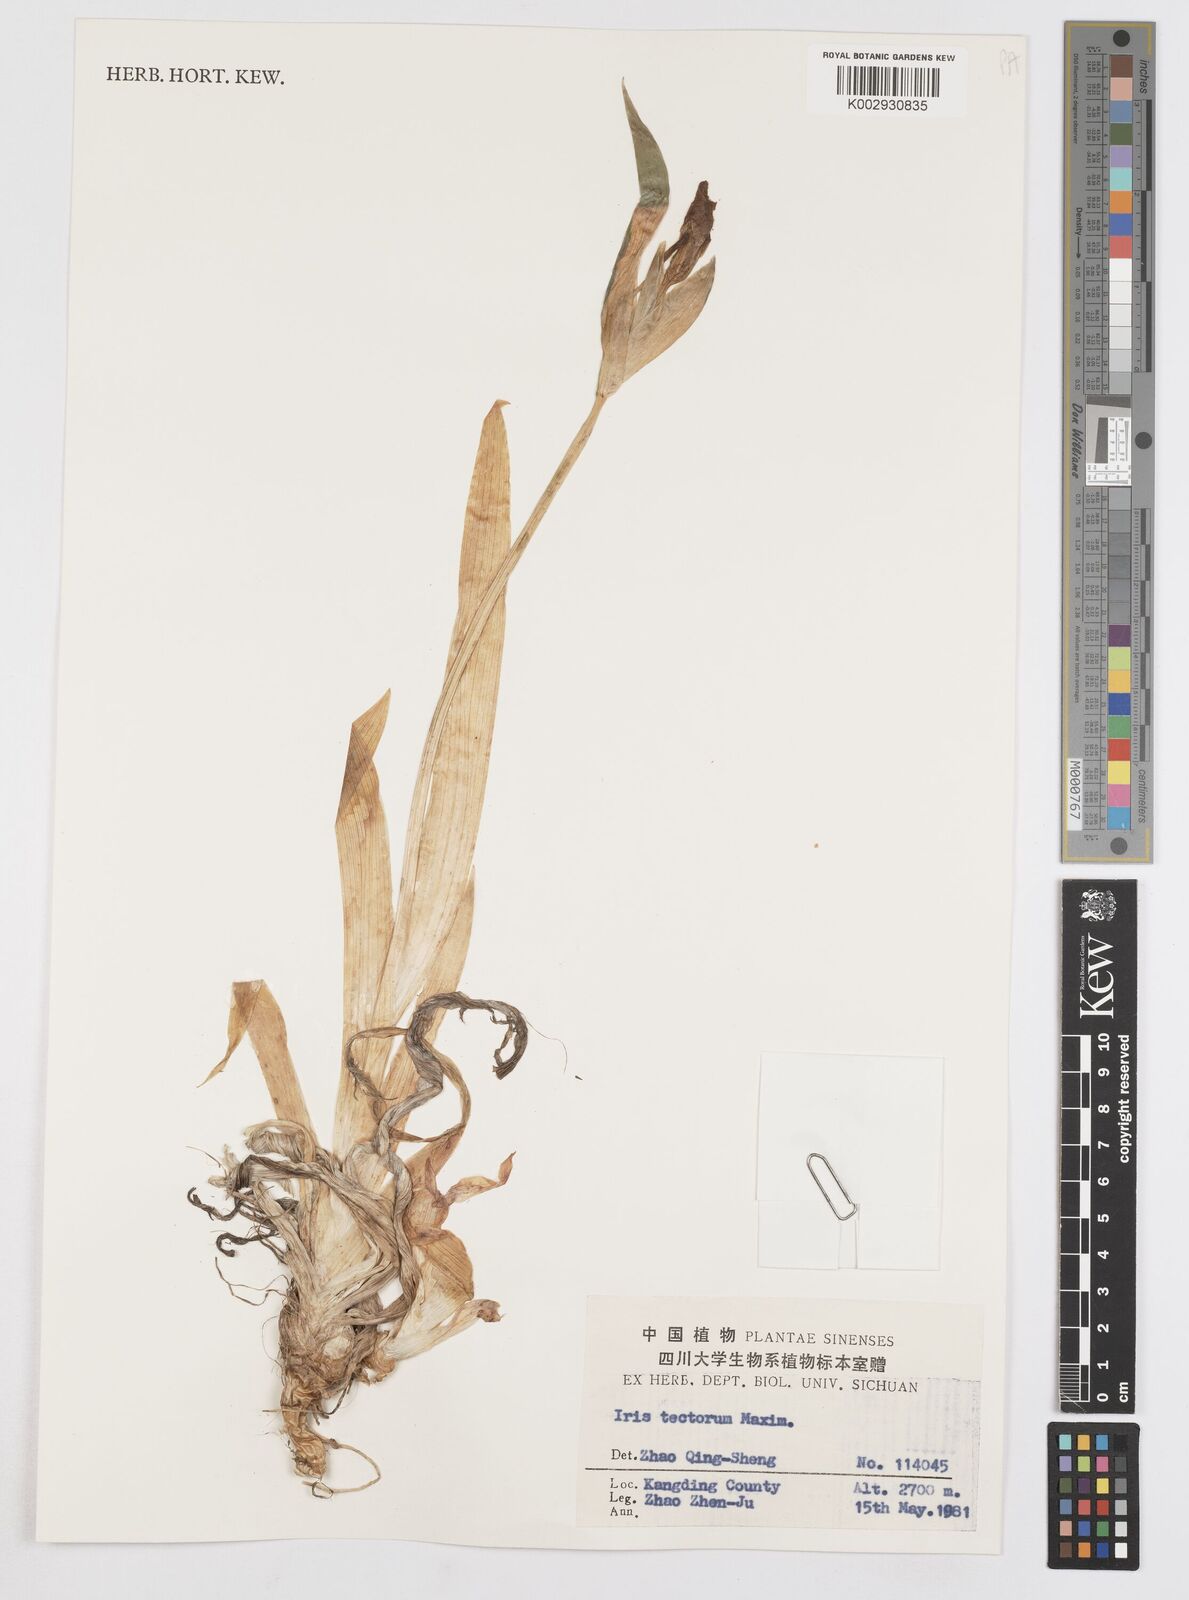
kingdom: Plantae
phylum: Tracheophyta
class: Liliopsida
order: Asparagales
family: Iridaceae
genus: Iris
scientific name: Iris tectorum
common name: Wall iris
